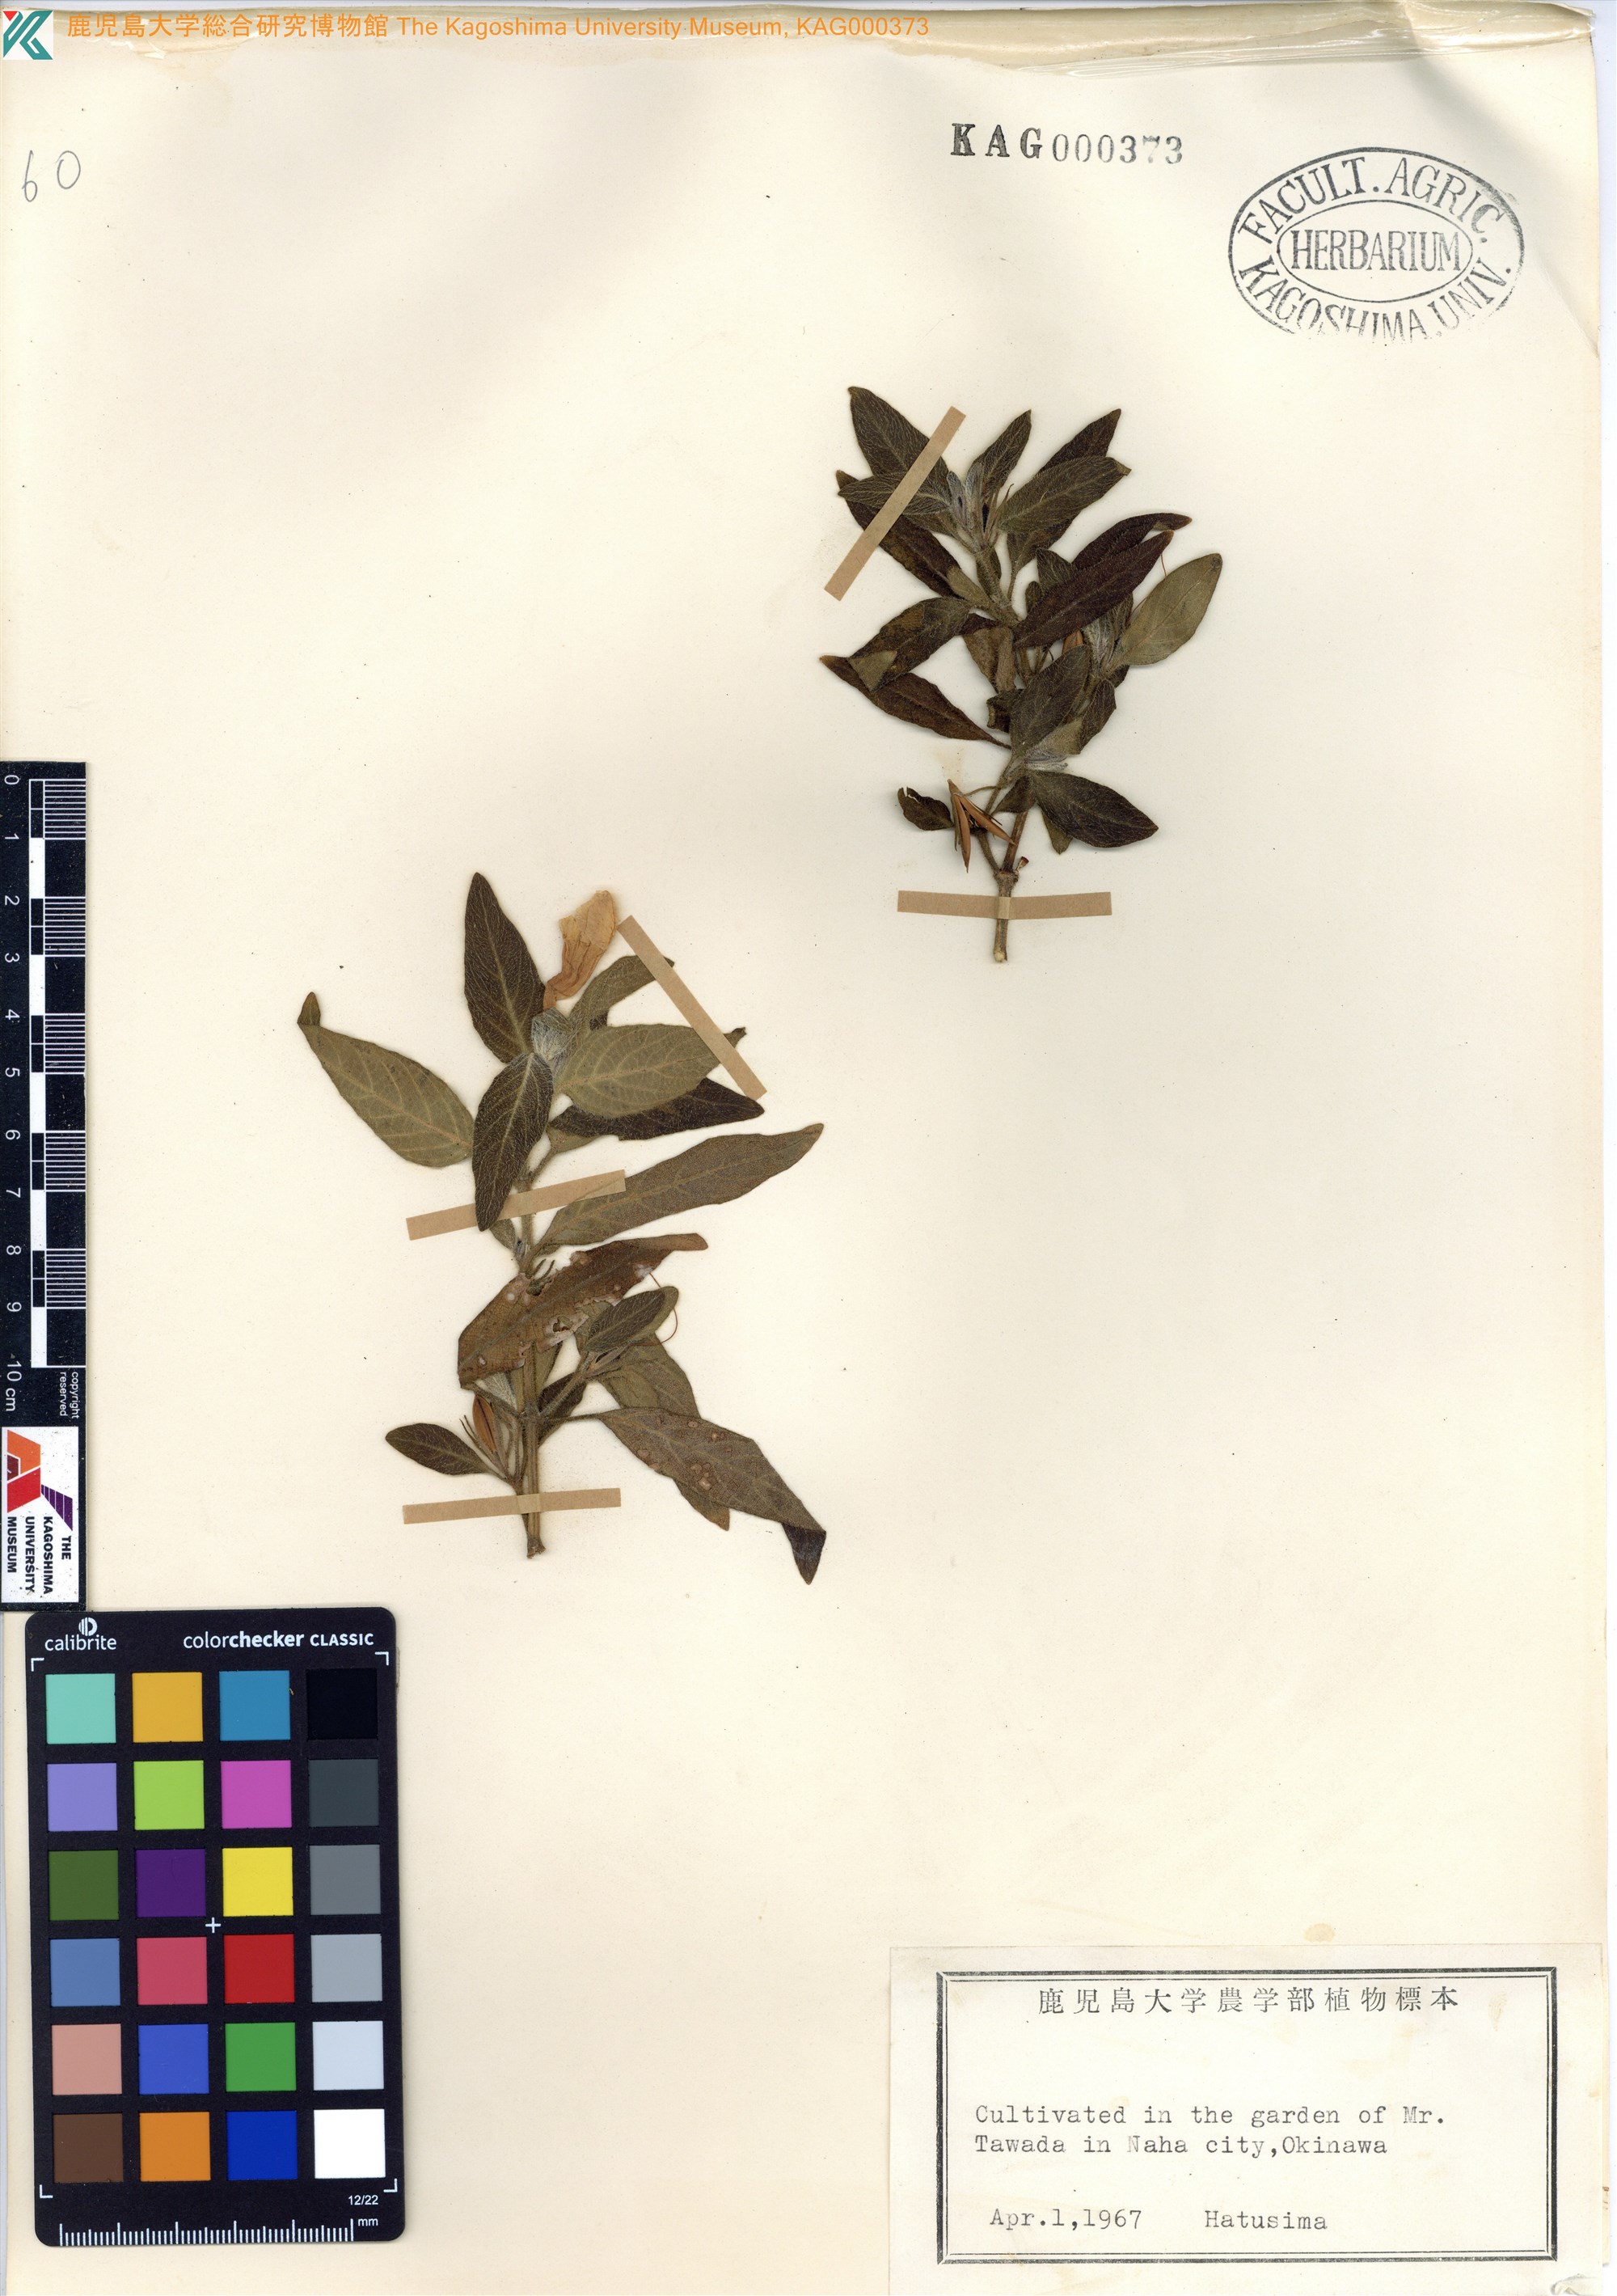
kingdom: Plantae
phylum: Tracheophyta
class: Magnoliopsida
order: Lamiales
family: Acanthaceae
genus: Ruellia
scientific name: Ruellia squarrosa
